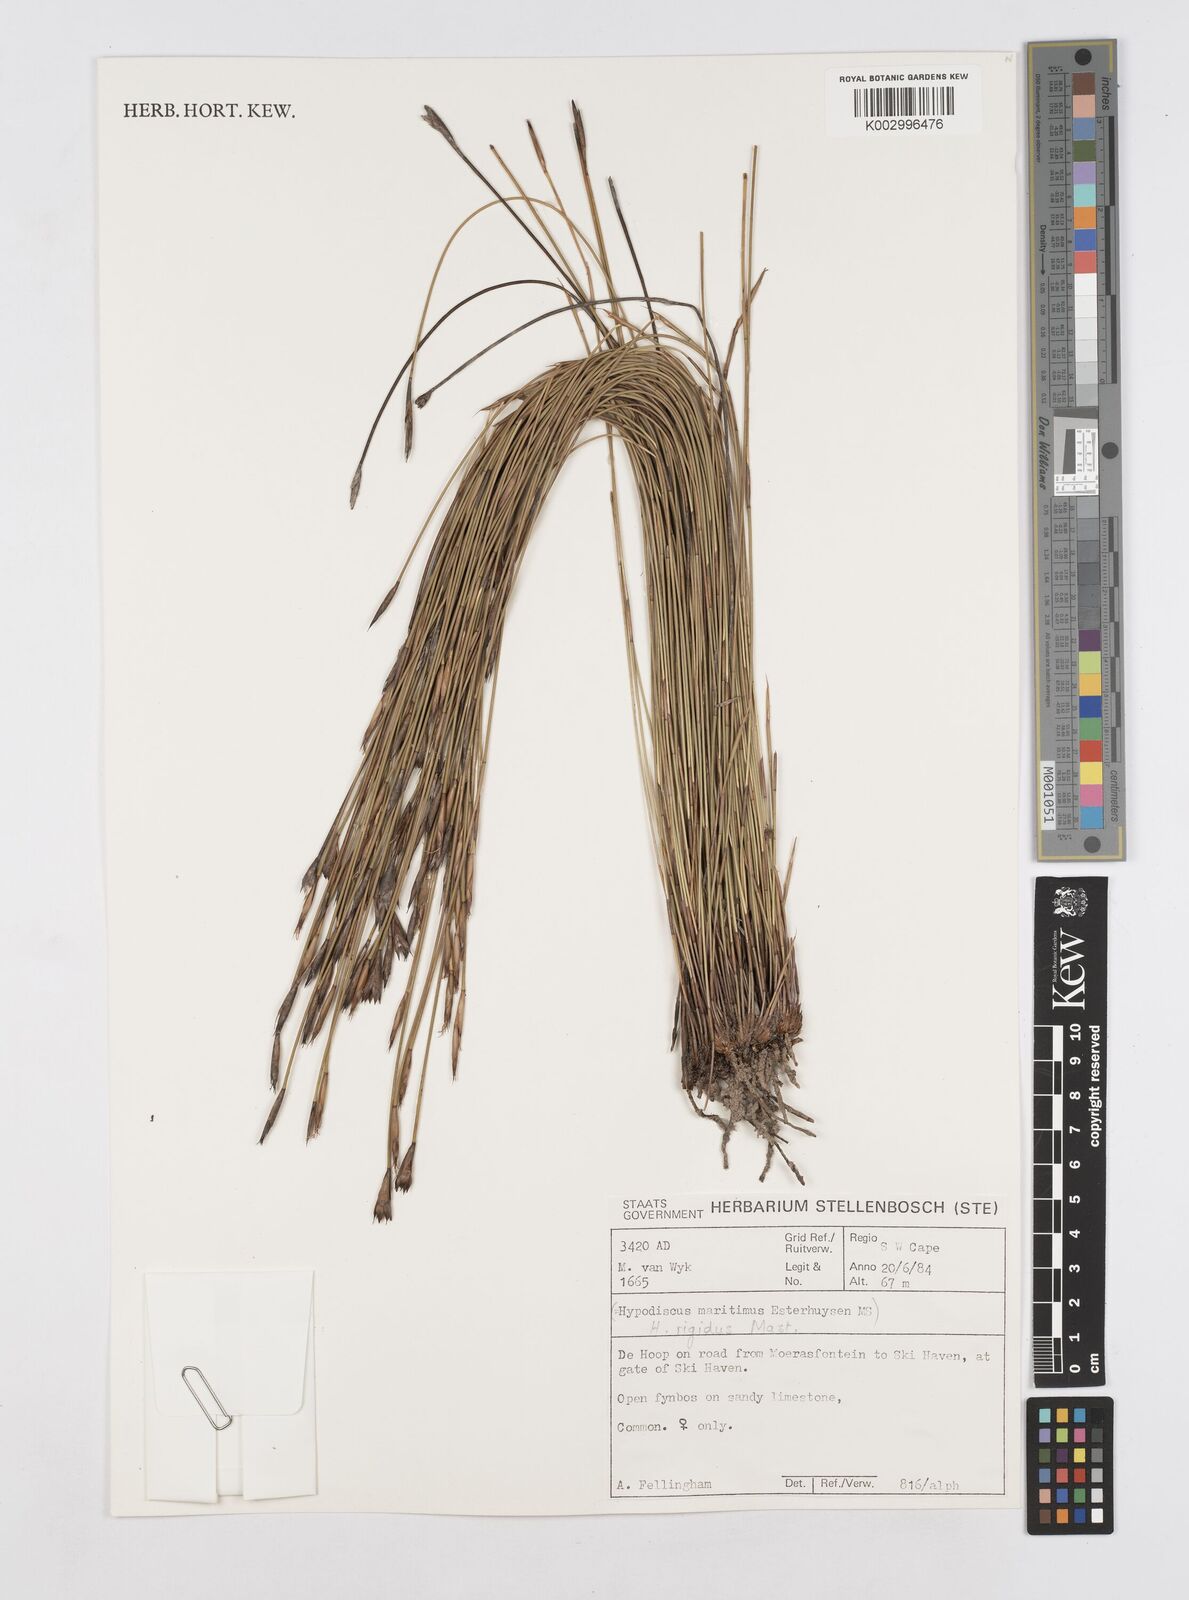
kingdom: Plantae
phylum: Tracheophyta
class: Liliopsida
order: Poales
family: Restionaceae
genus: Hypodiscus
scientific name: Hypodiscus rigidus
